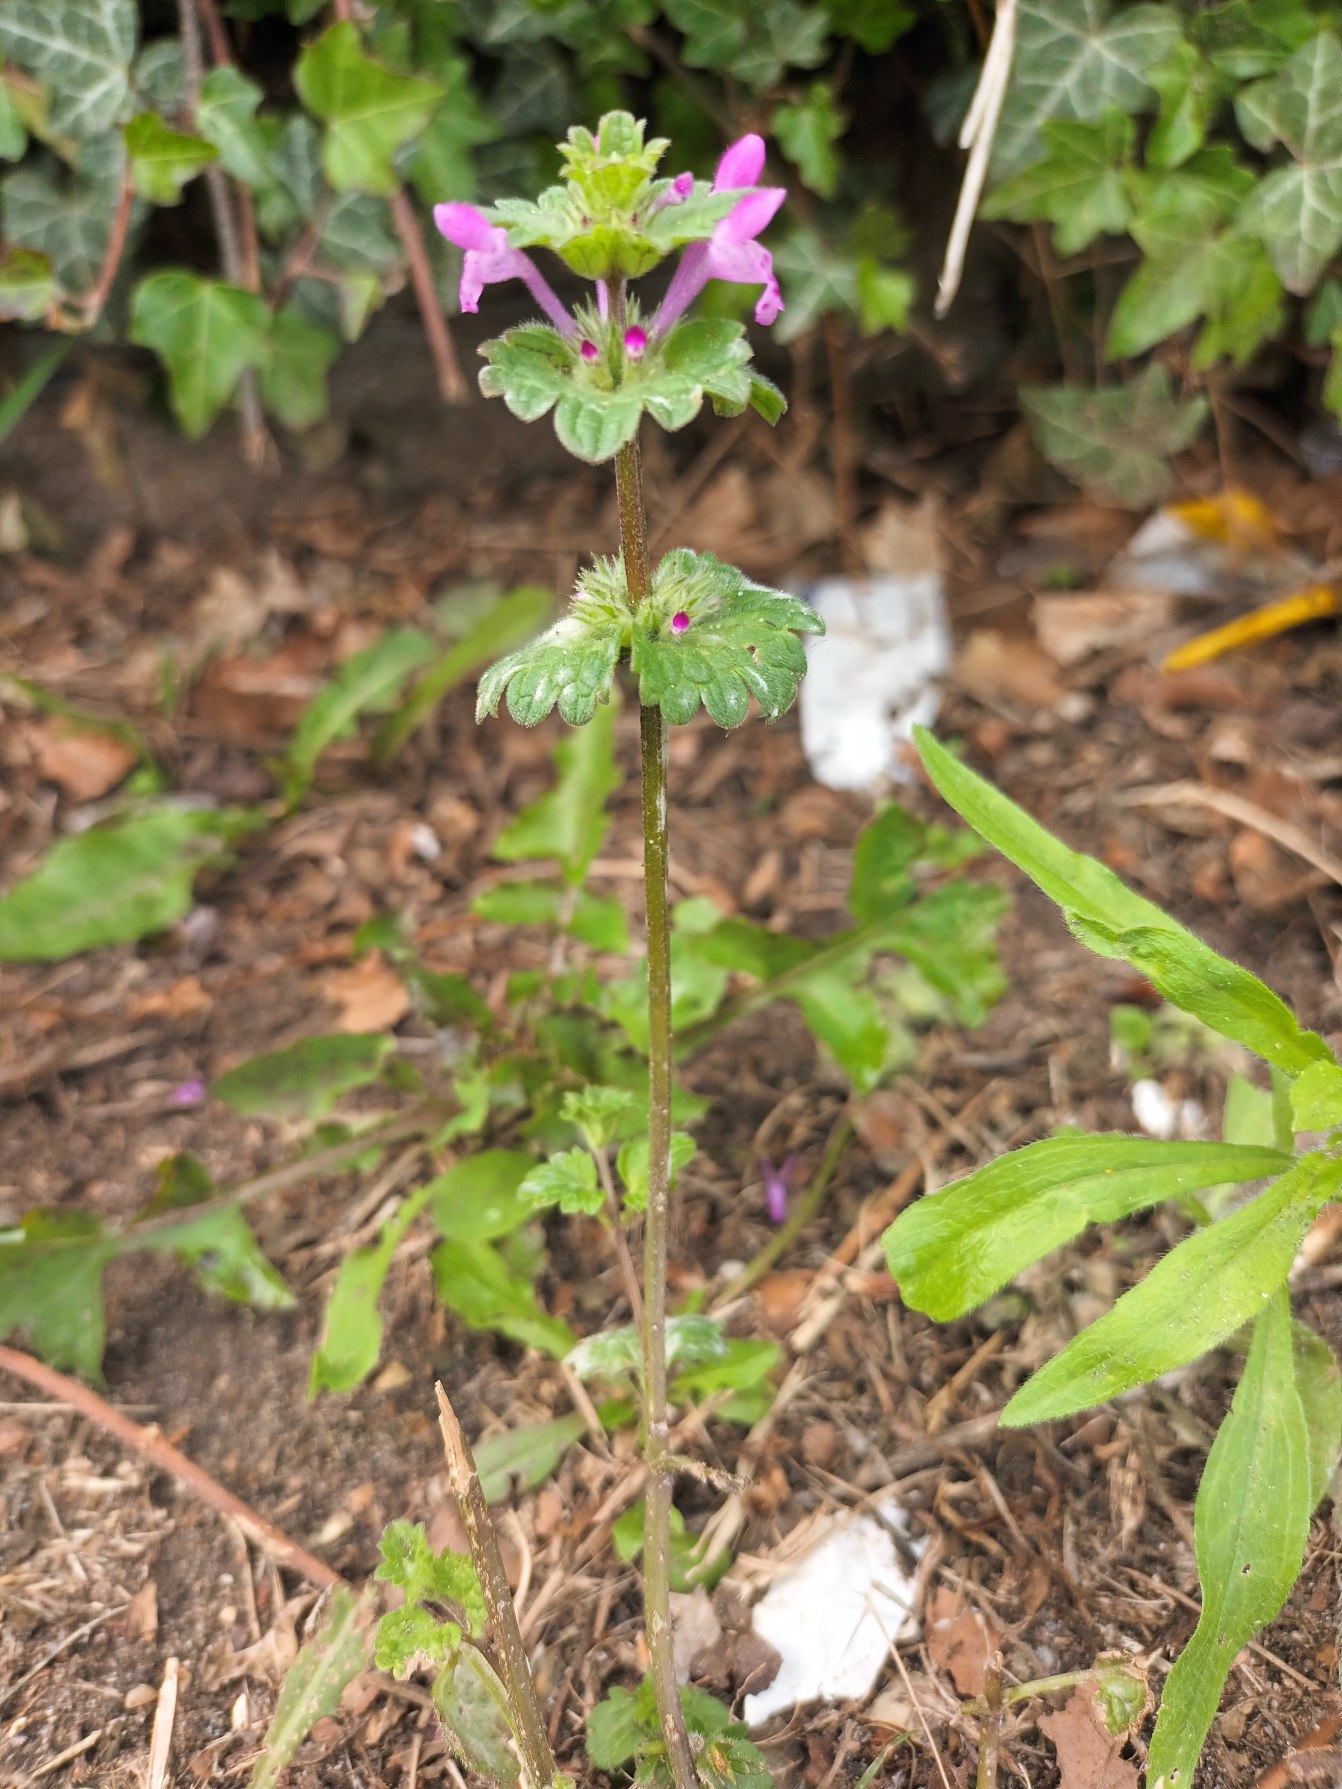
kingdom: Plantae
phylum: Tracheophyta
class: Magnoliopsida
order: Lamiales
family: Lamiaceae
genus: Lamium
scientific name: Lamium amplexicaule
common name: Liden tvetand
